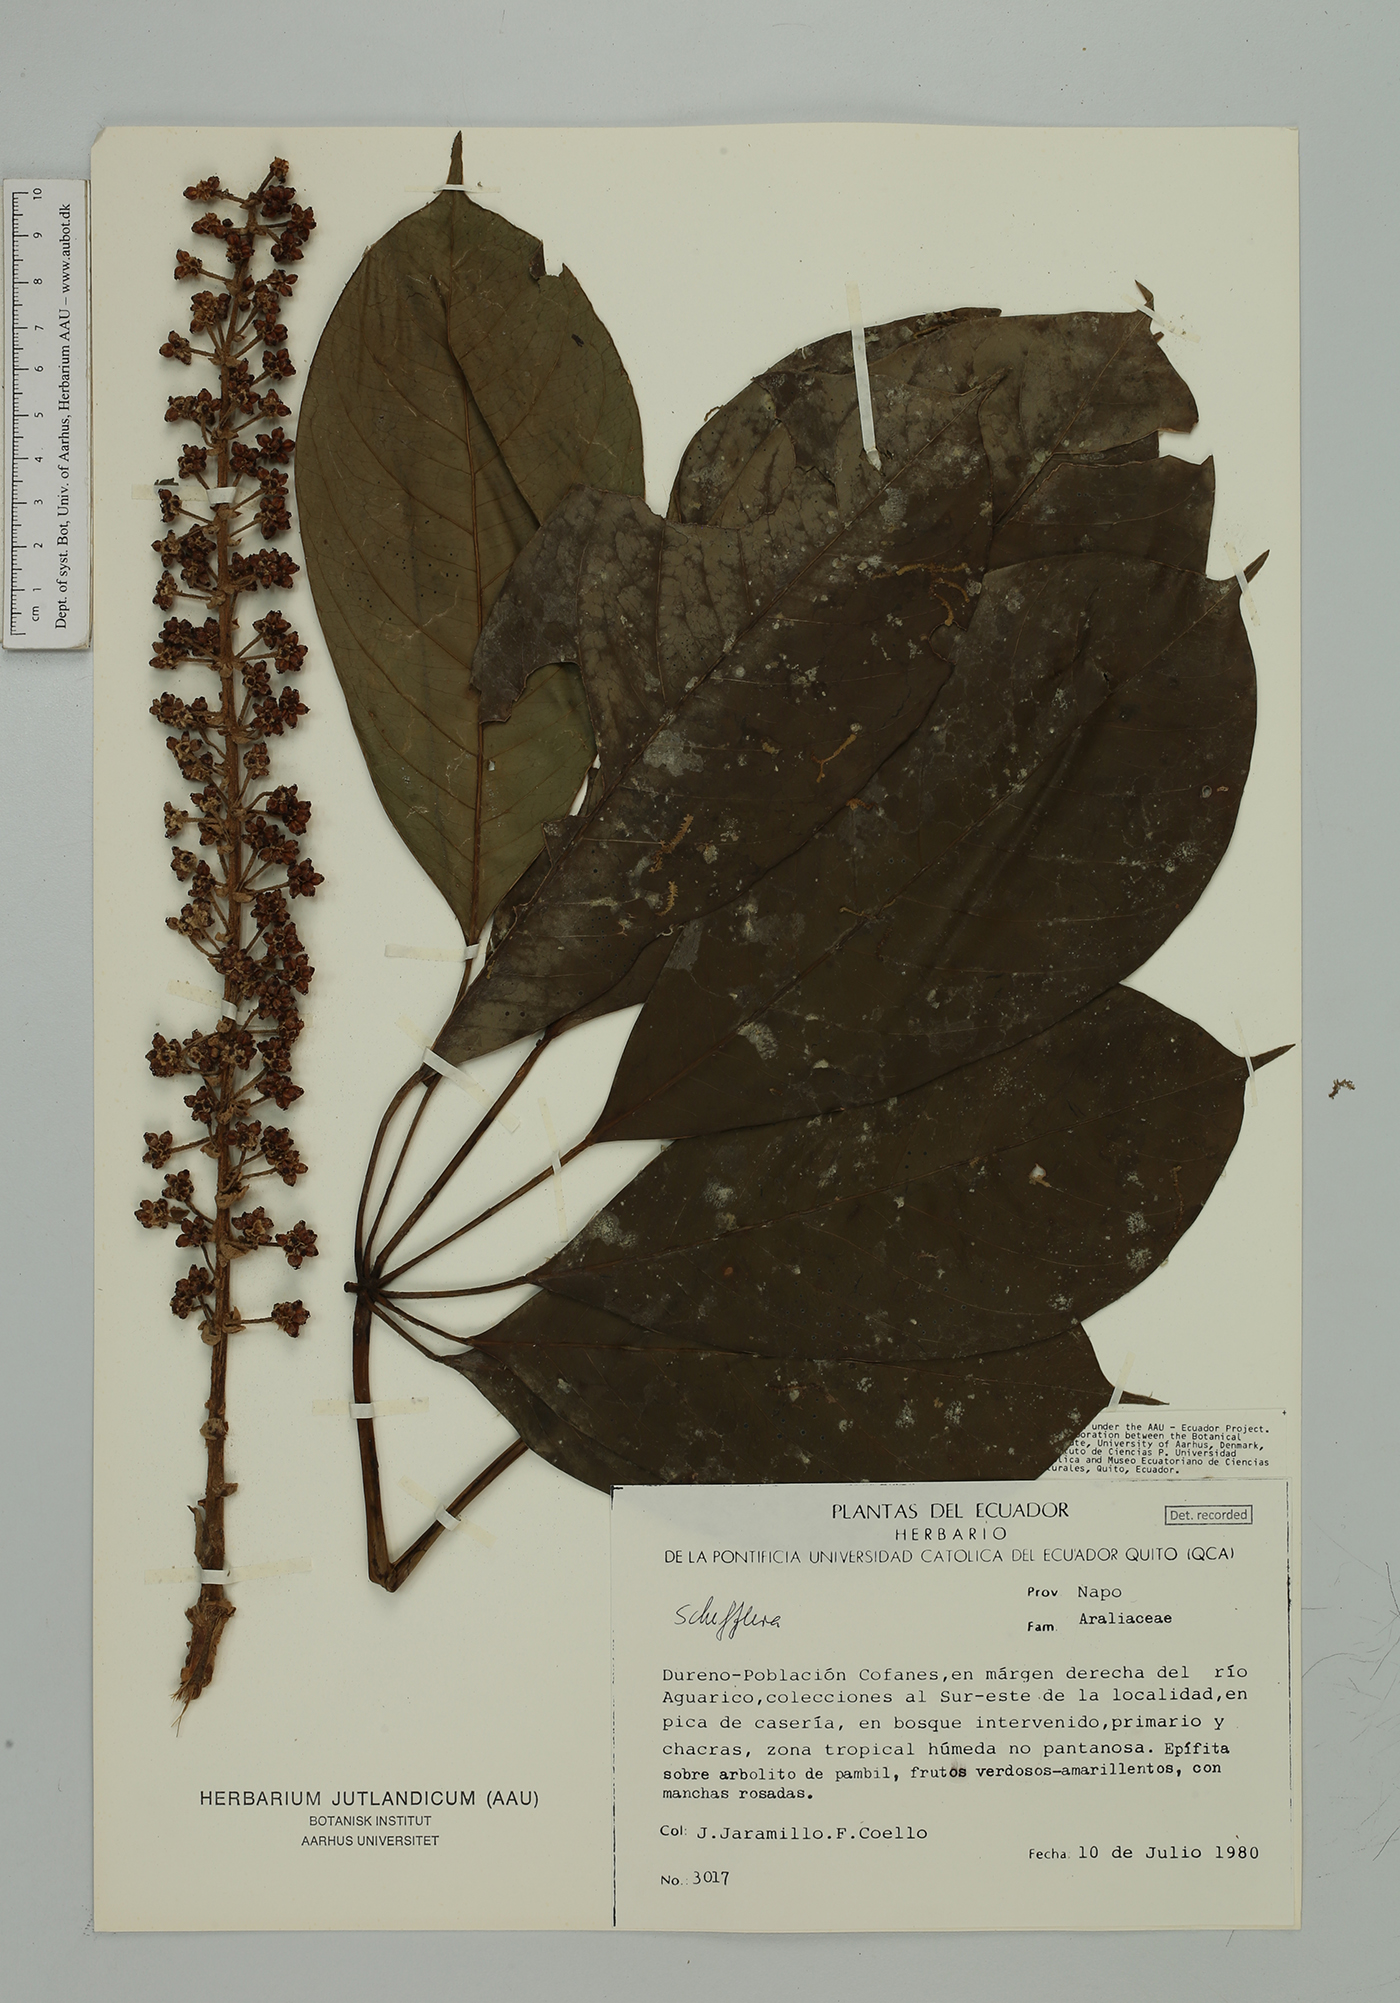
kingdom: Plantae
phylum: Tracheophyta
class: Magnoliopsida
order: Apiales
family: Araliaceae
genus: Sciodaphyllum
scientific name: Sciodaphyllum sprucei
